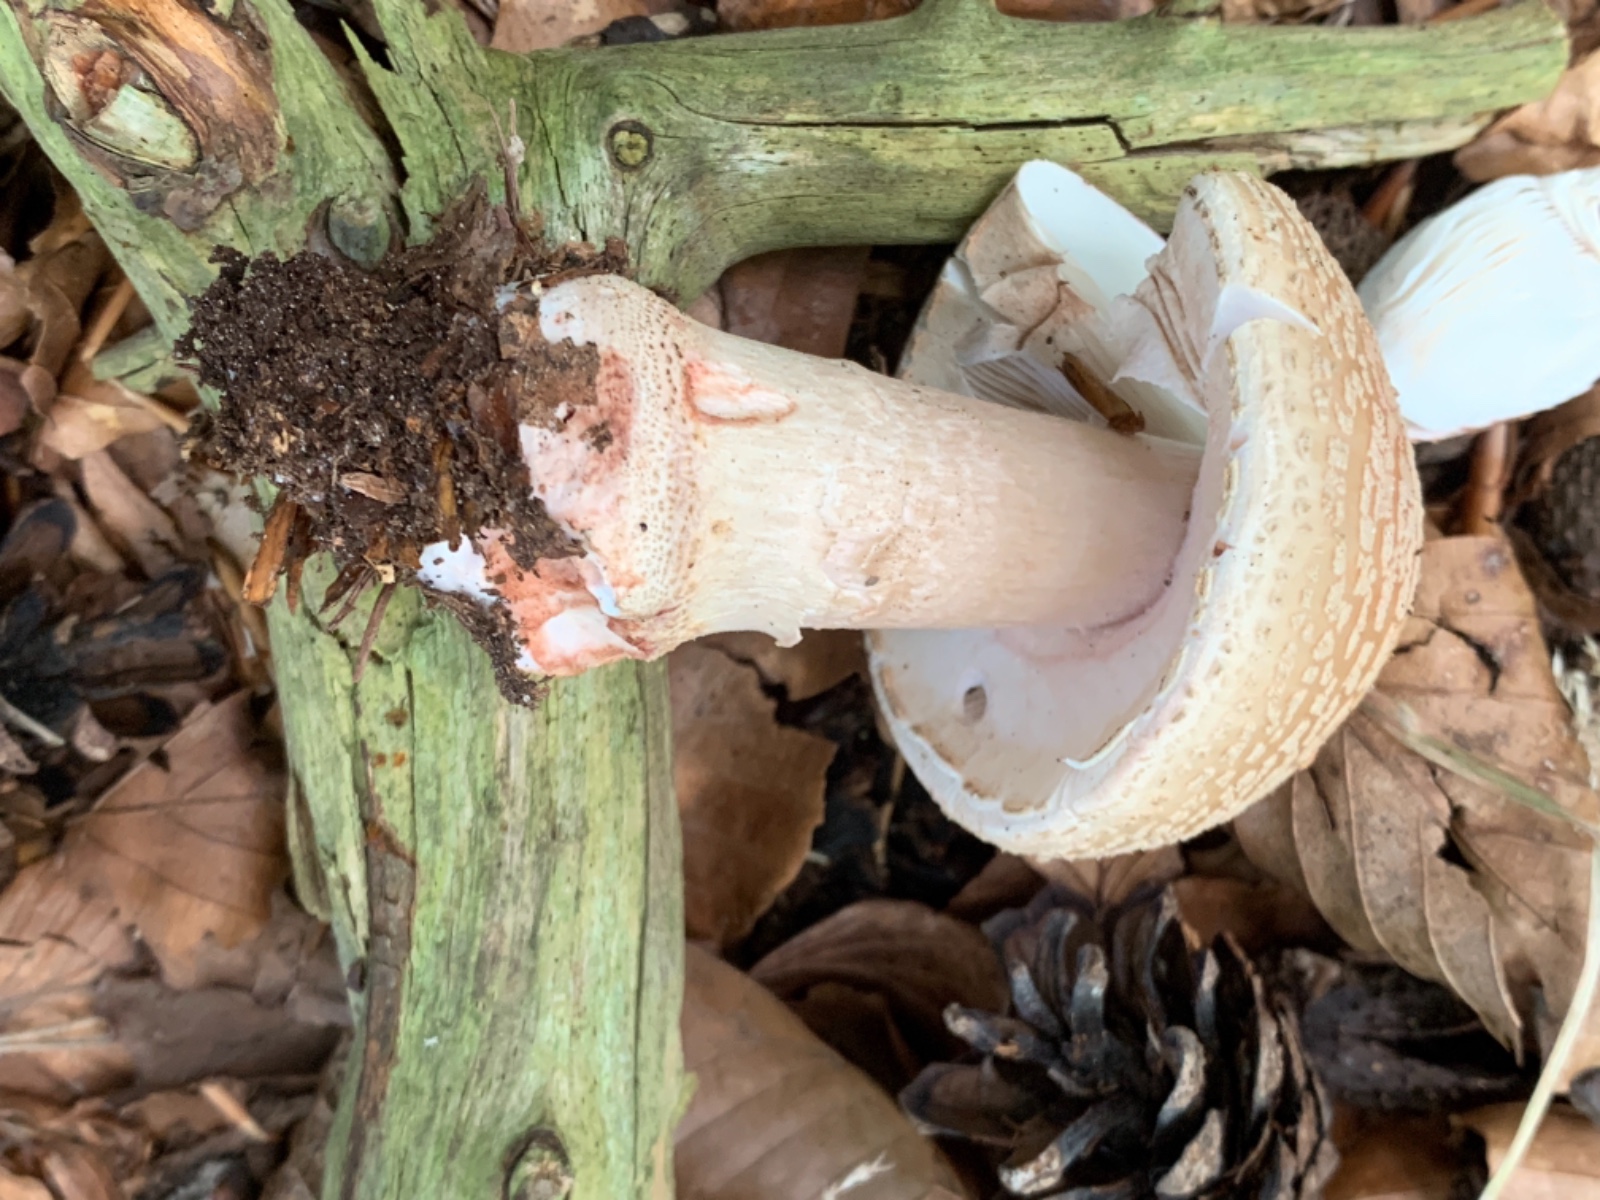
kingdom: Fungi
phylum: Basidiomycota
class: Agaricomycetes
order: Agaricales
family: Amanitaceae
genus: Amanita
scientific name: Amanita rubescens
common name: rødmende fluesvamp
